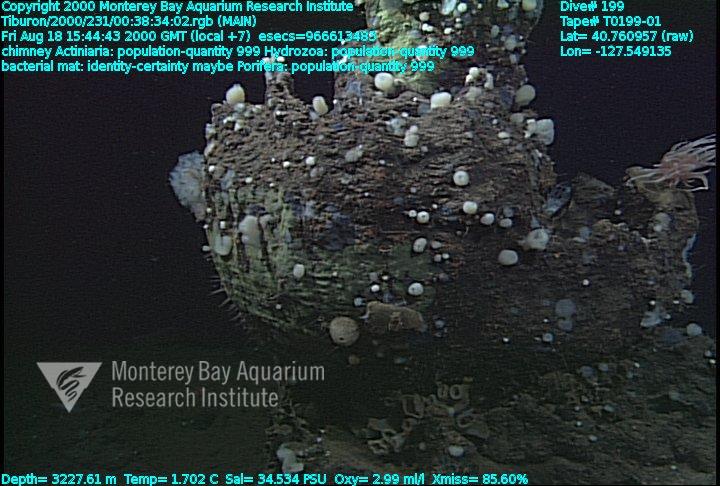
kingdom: Animalia
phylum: Porifera
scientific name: Porifera
